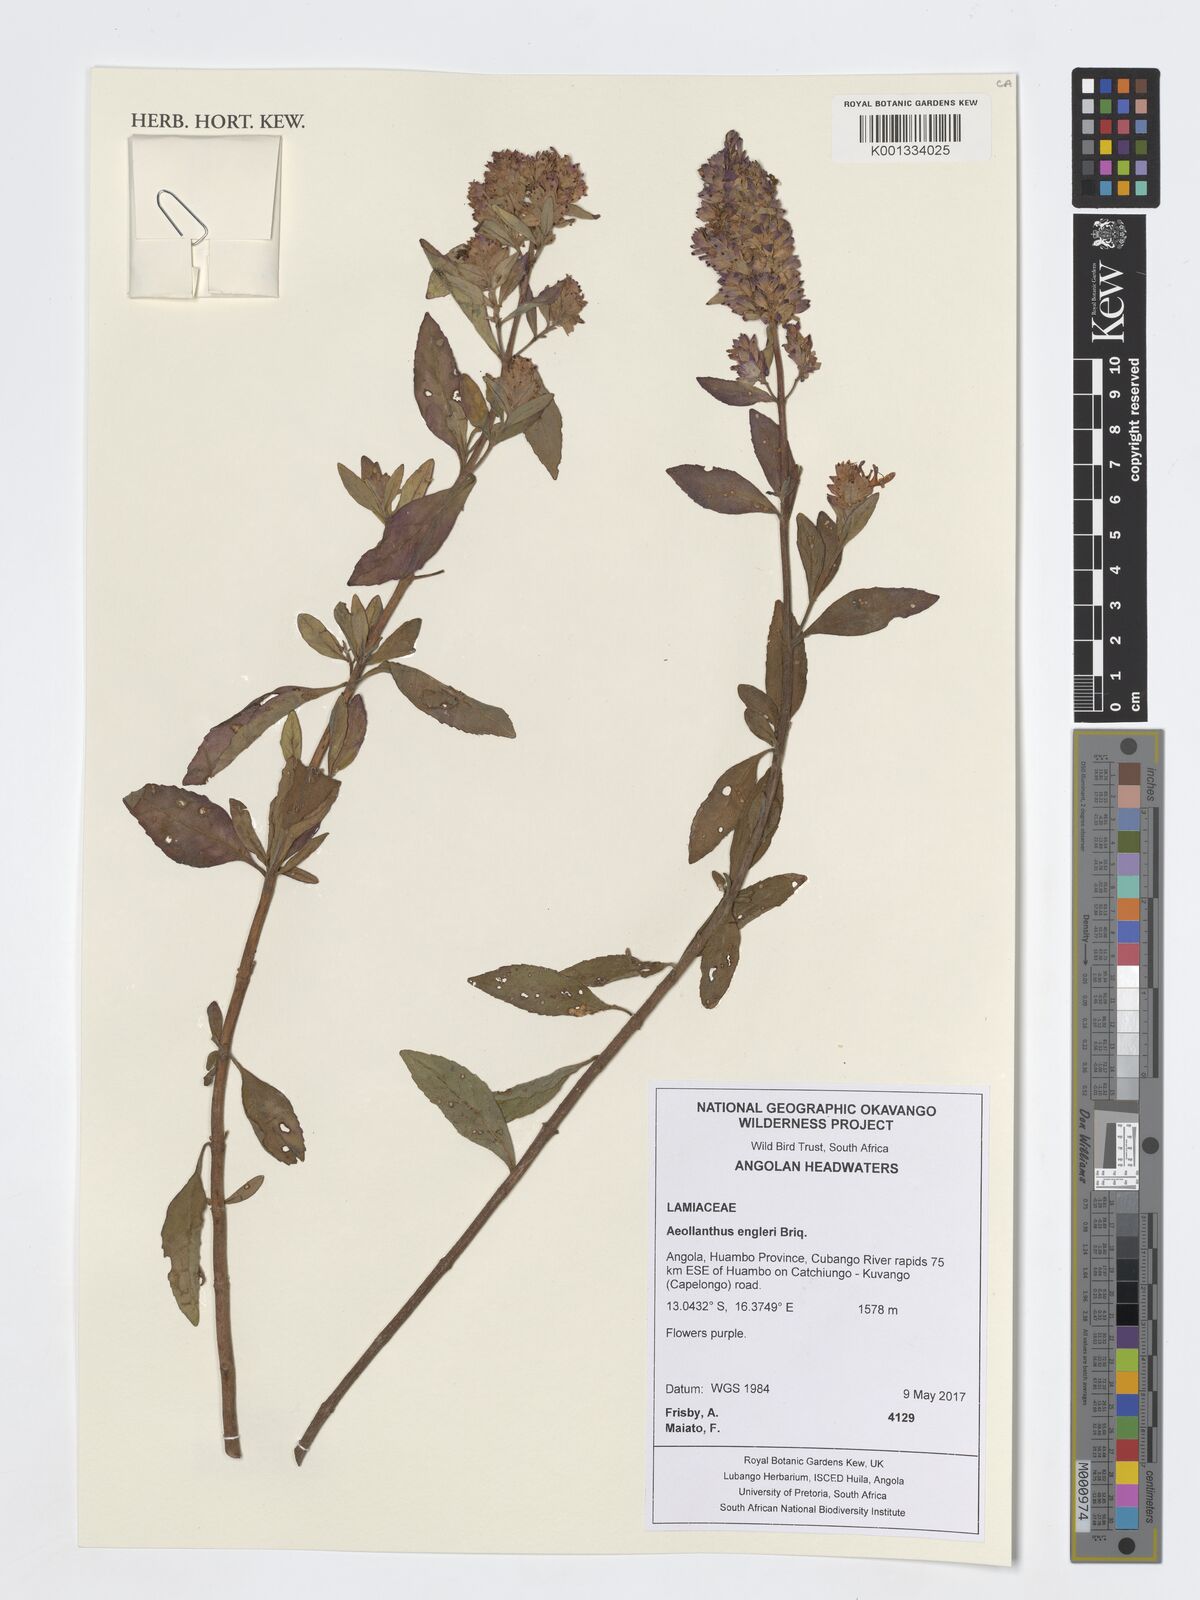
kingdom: Plantae
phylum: Tracheophyta
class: Magnoliopsida
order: Lamiales
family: Lamiaceae
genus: Aeollanthus
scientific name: Aeollanthus engleri
